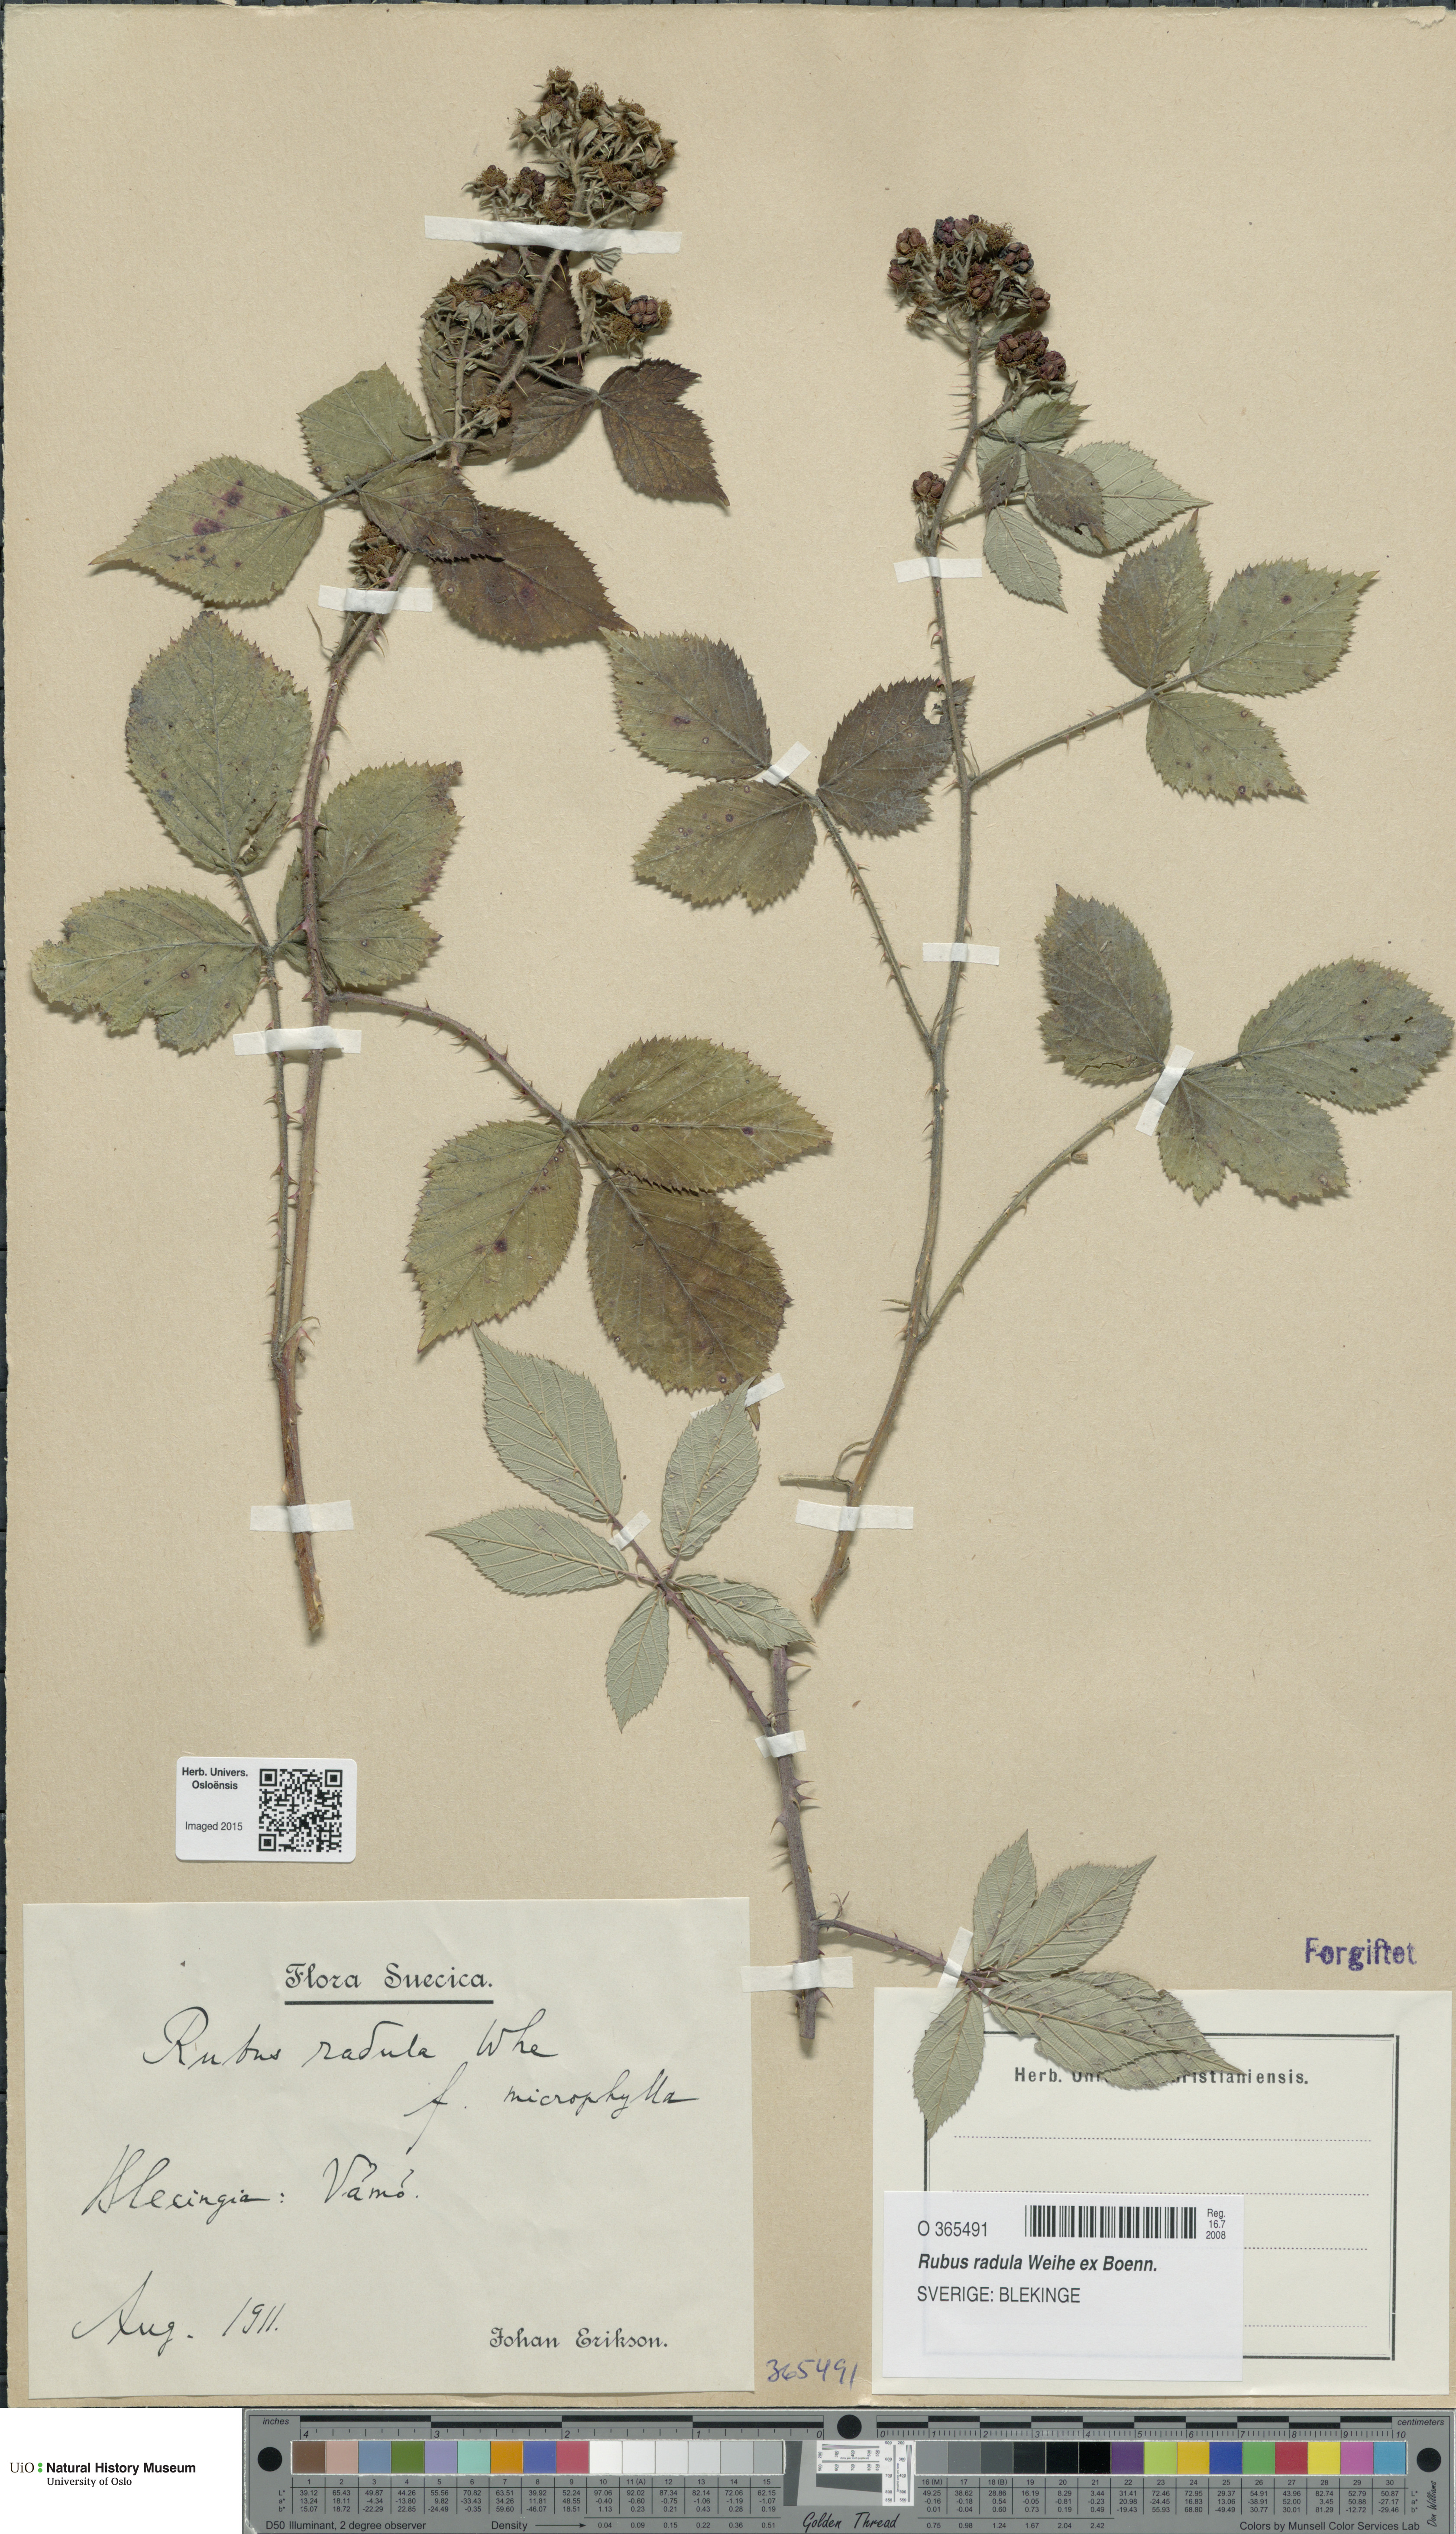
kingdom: Plantae
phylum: Tracheophyta
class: Magnoliopsida
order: Rosales
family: Rosaceae
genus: Rubus
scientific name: Rubus radula
